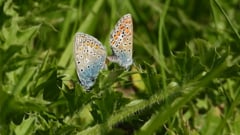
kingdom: Animalia
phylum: Arthropoda
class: Insecta
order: Lepidoptera
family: Lycaenidae
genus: Polyommatus
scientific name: Polyommatus icarus
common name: Common blue
